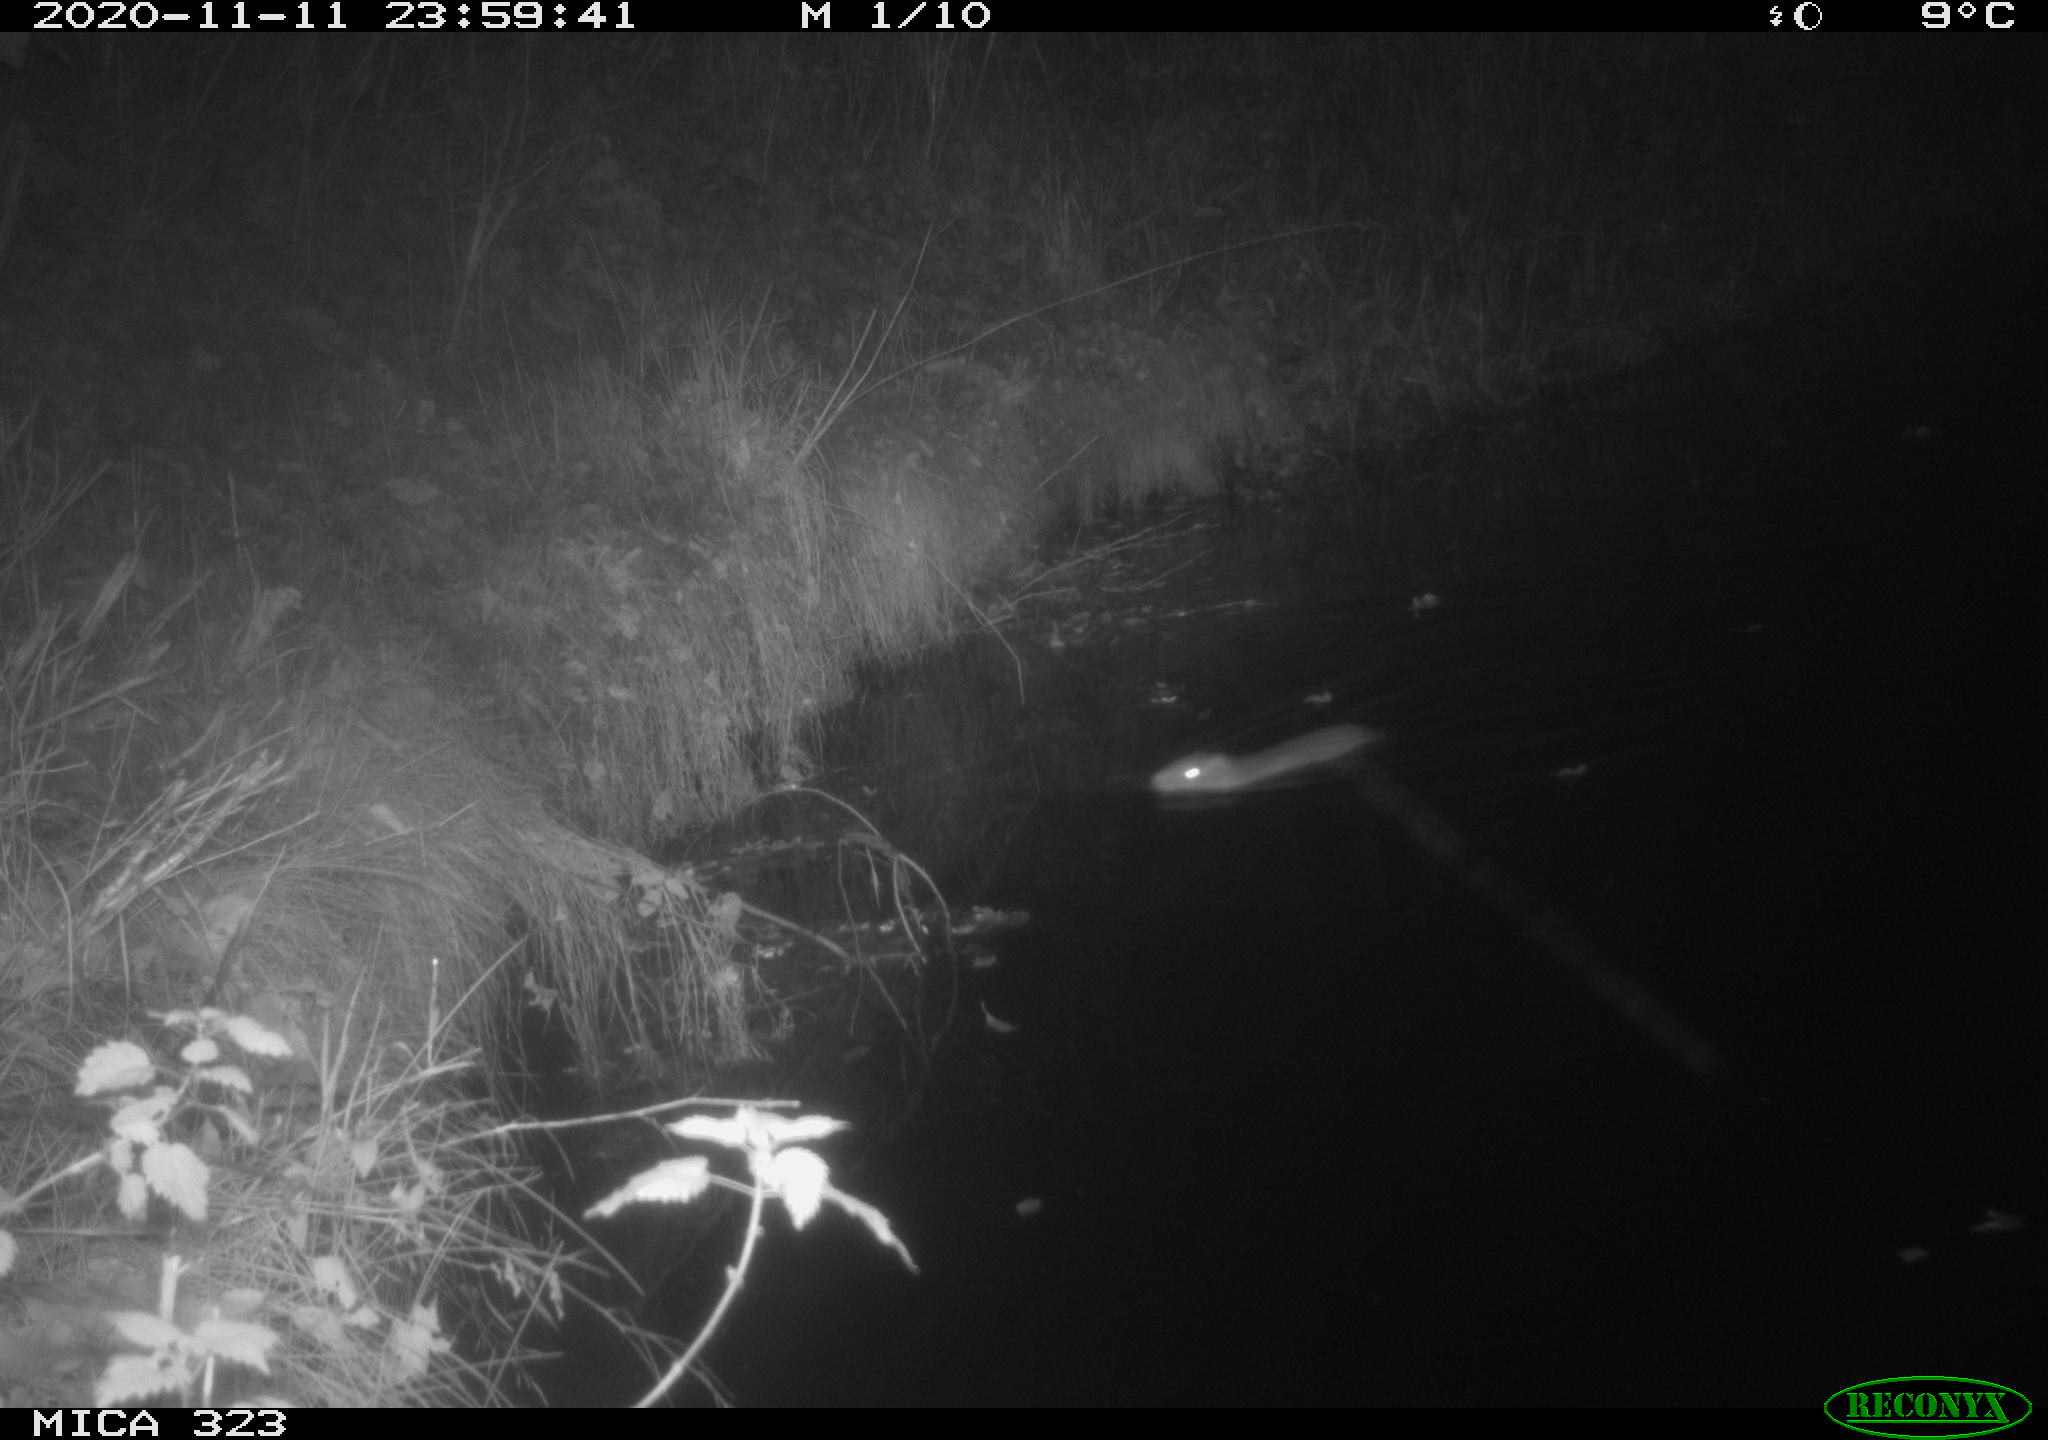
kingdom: Animalia
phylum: Chordata
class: Mammalia
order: Rodentia
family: Myocastoridae
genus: Myocastor
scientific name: Myocastor coypus
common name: Coypu
